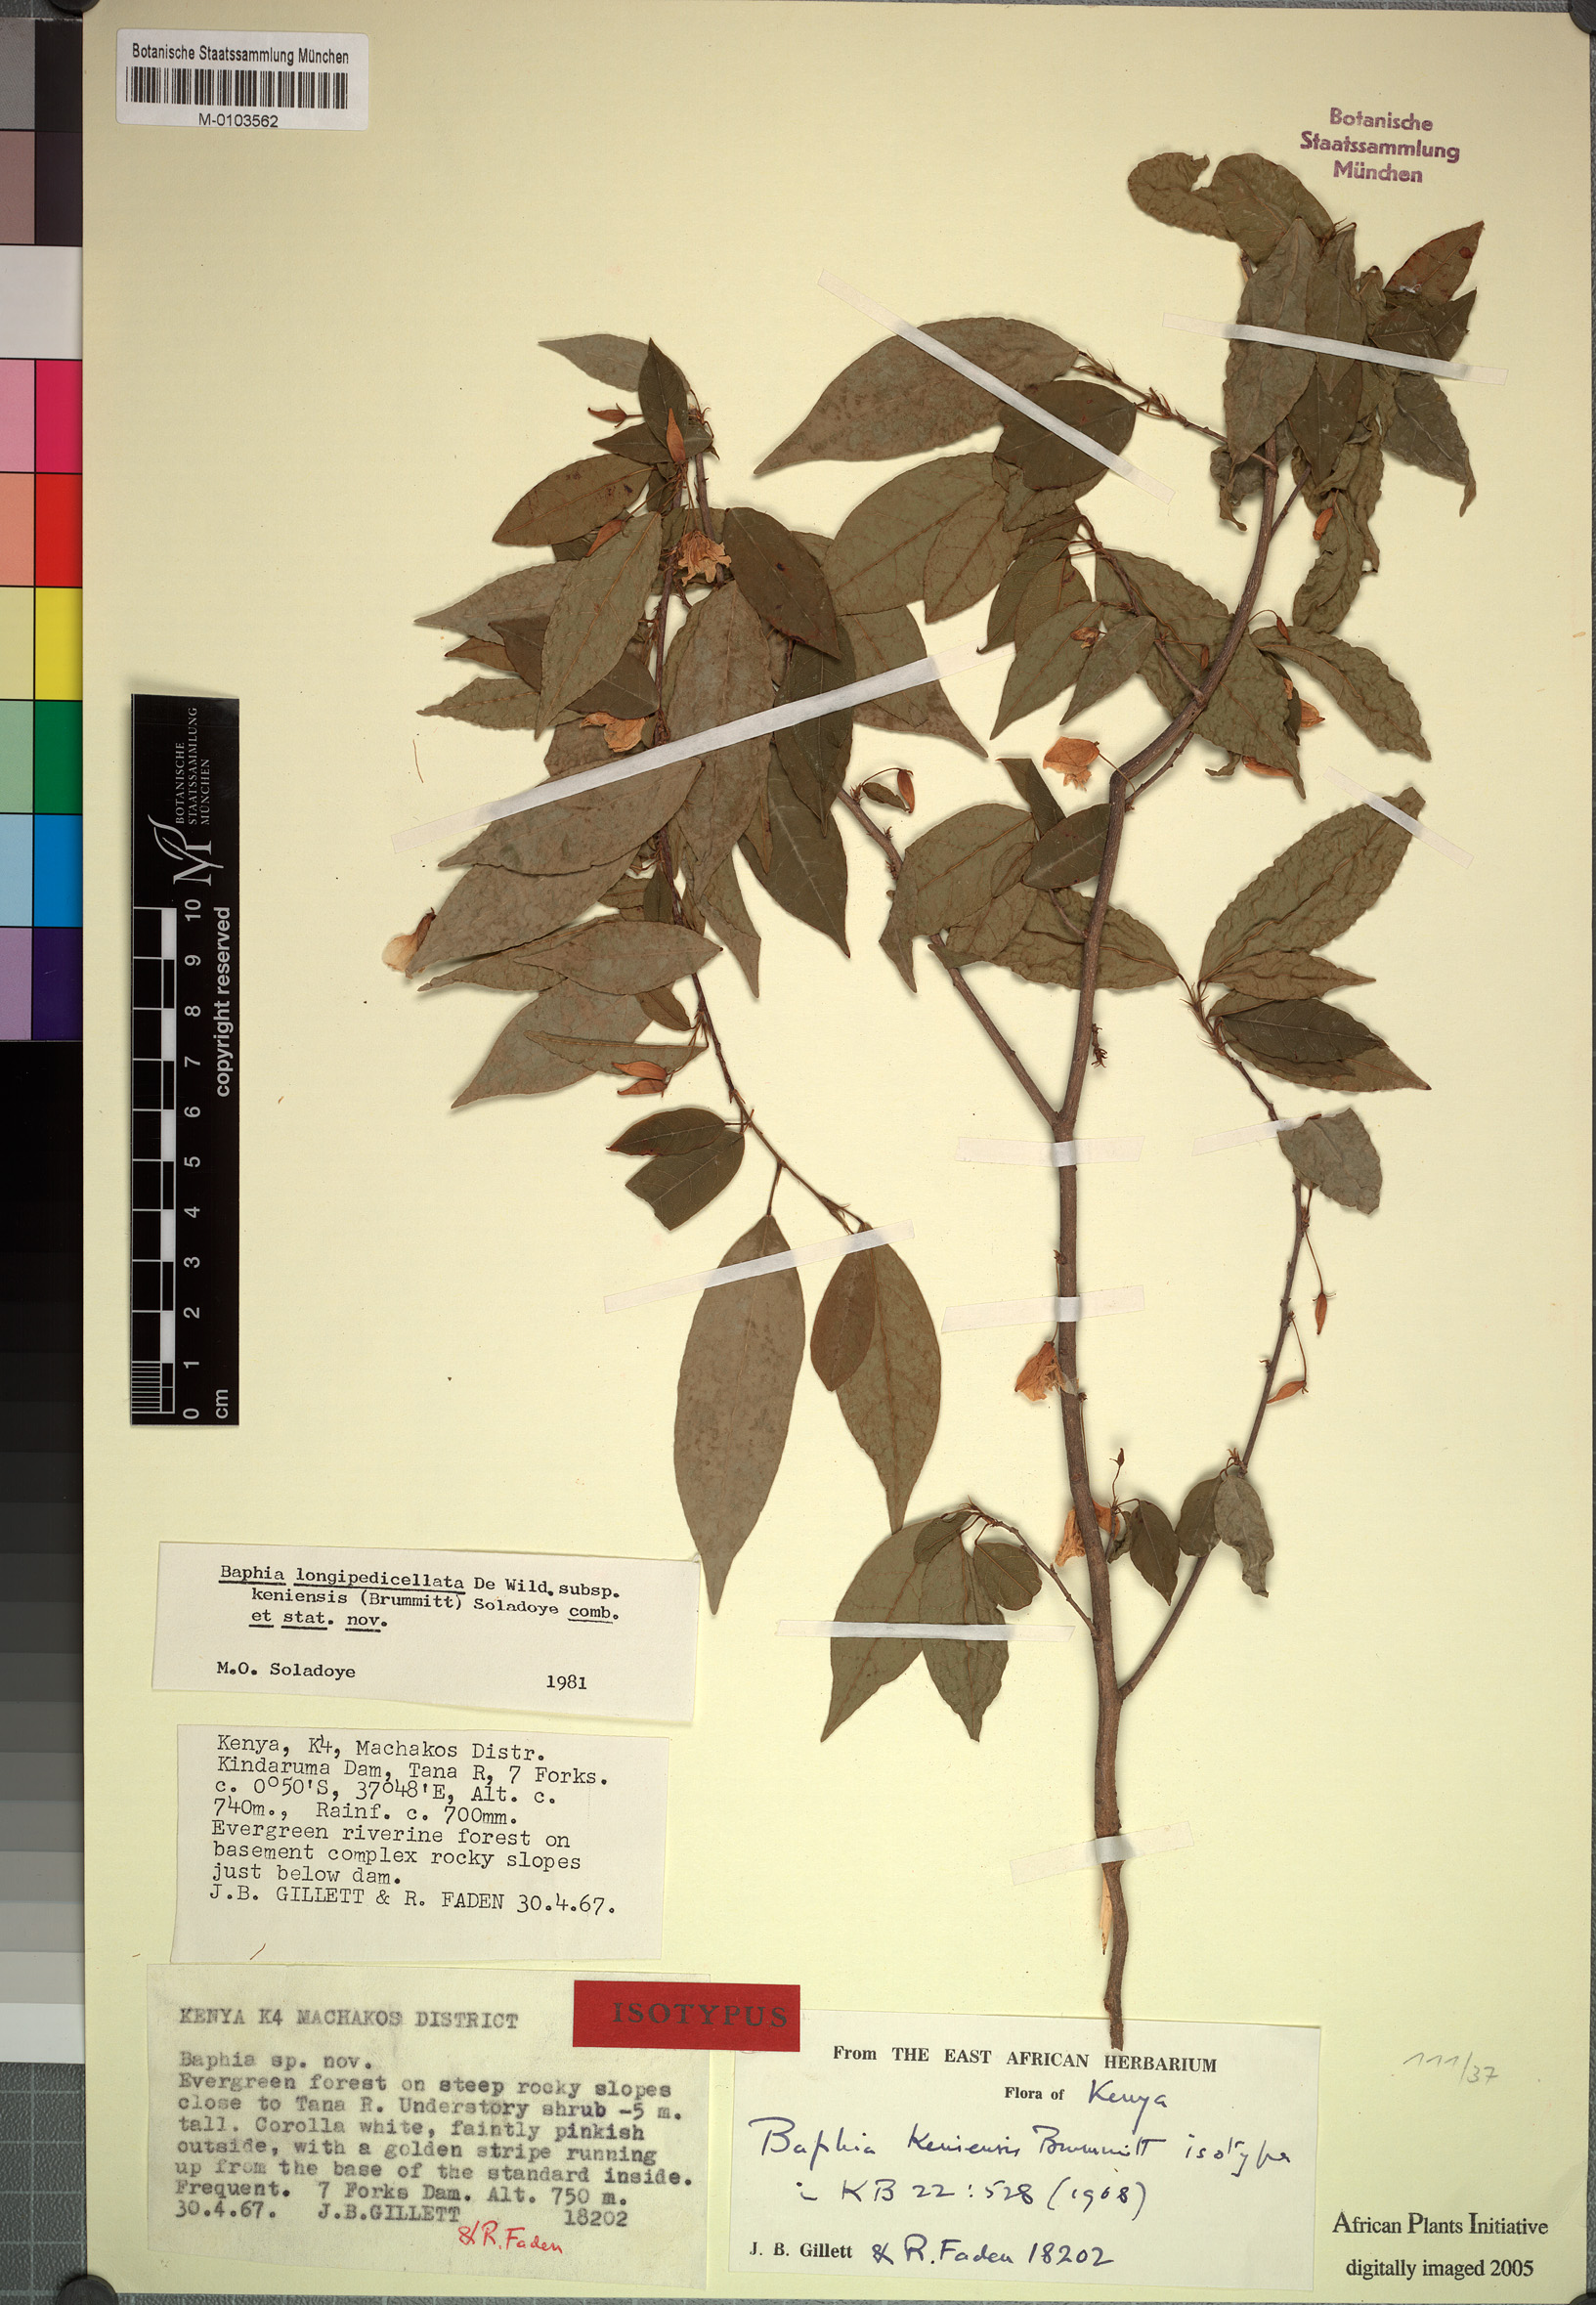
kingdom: Plantae
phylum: Tracheophyta
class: Magnoliopsida
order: Fabales
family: Fabaceae
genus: Baphia
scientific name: Baphia longipedicellata
